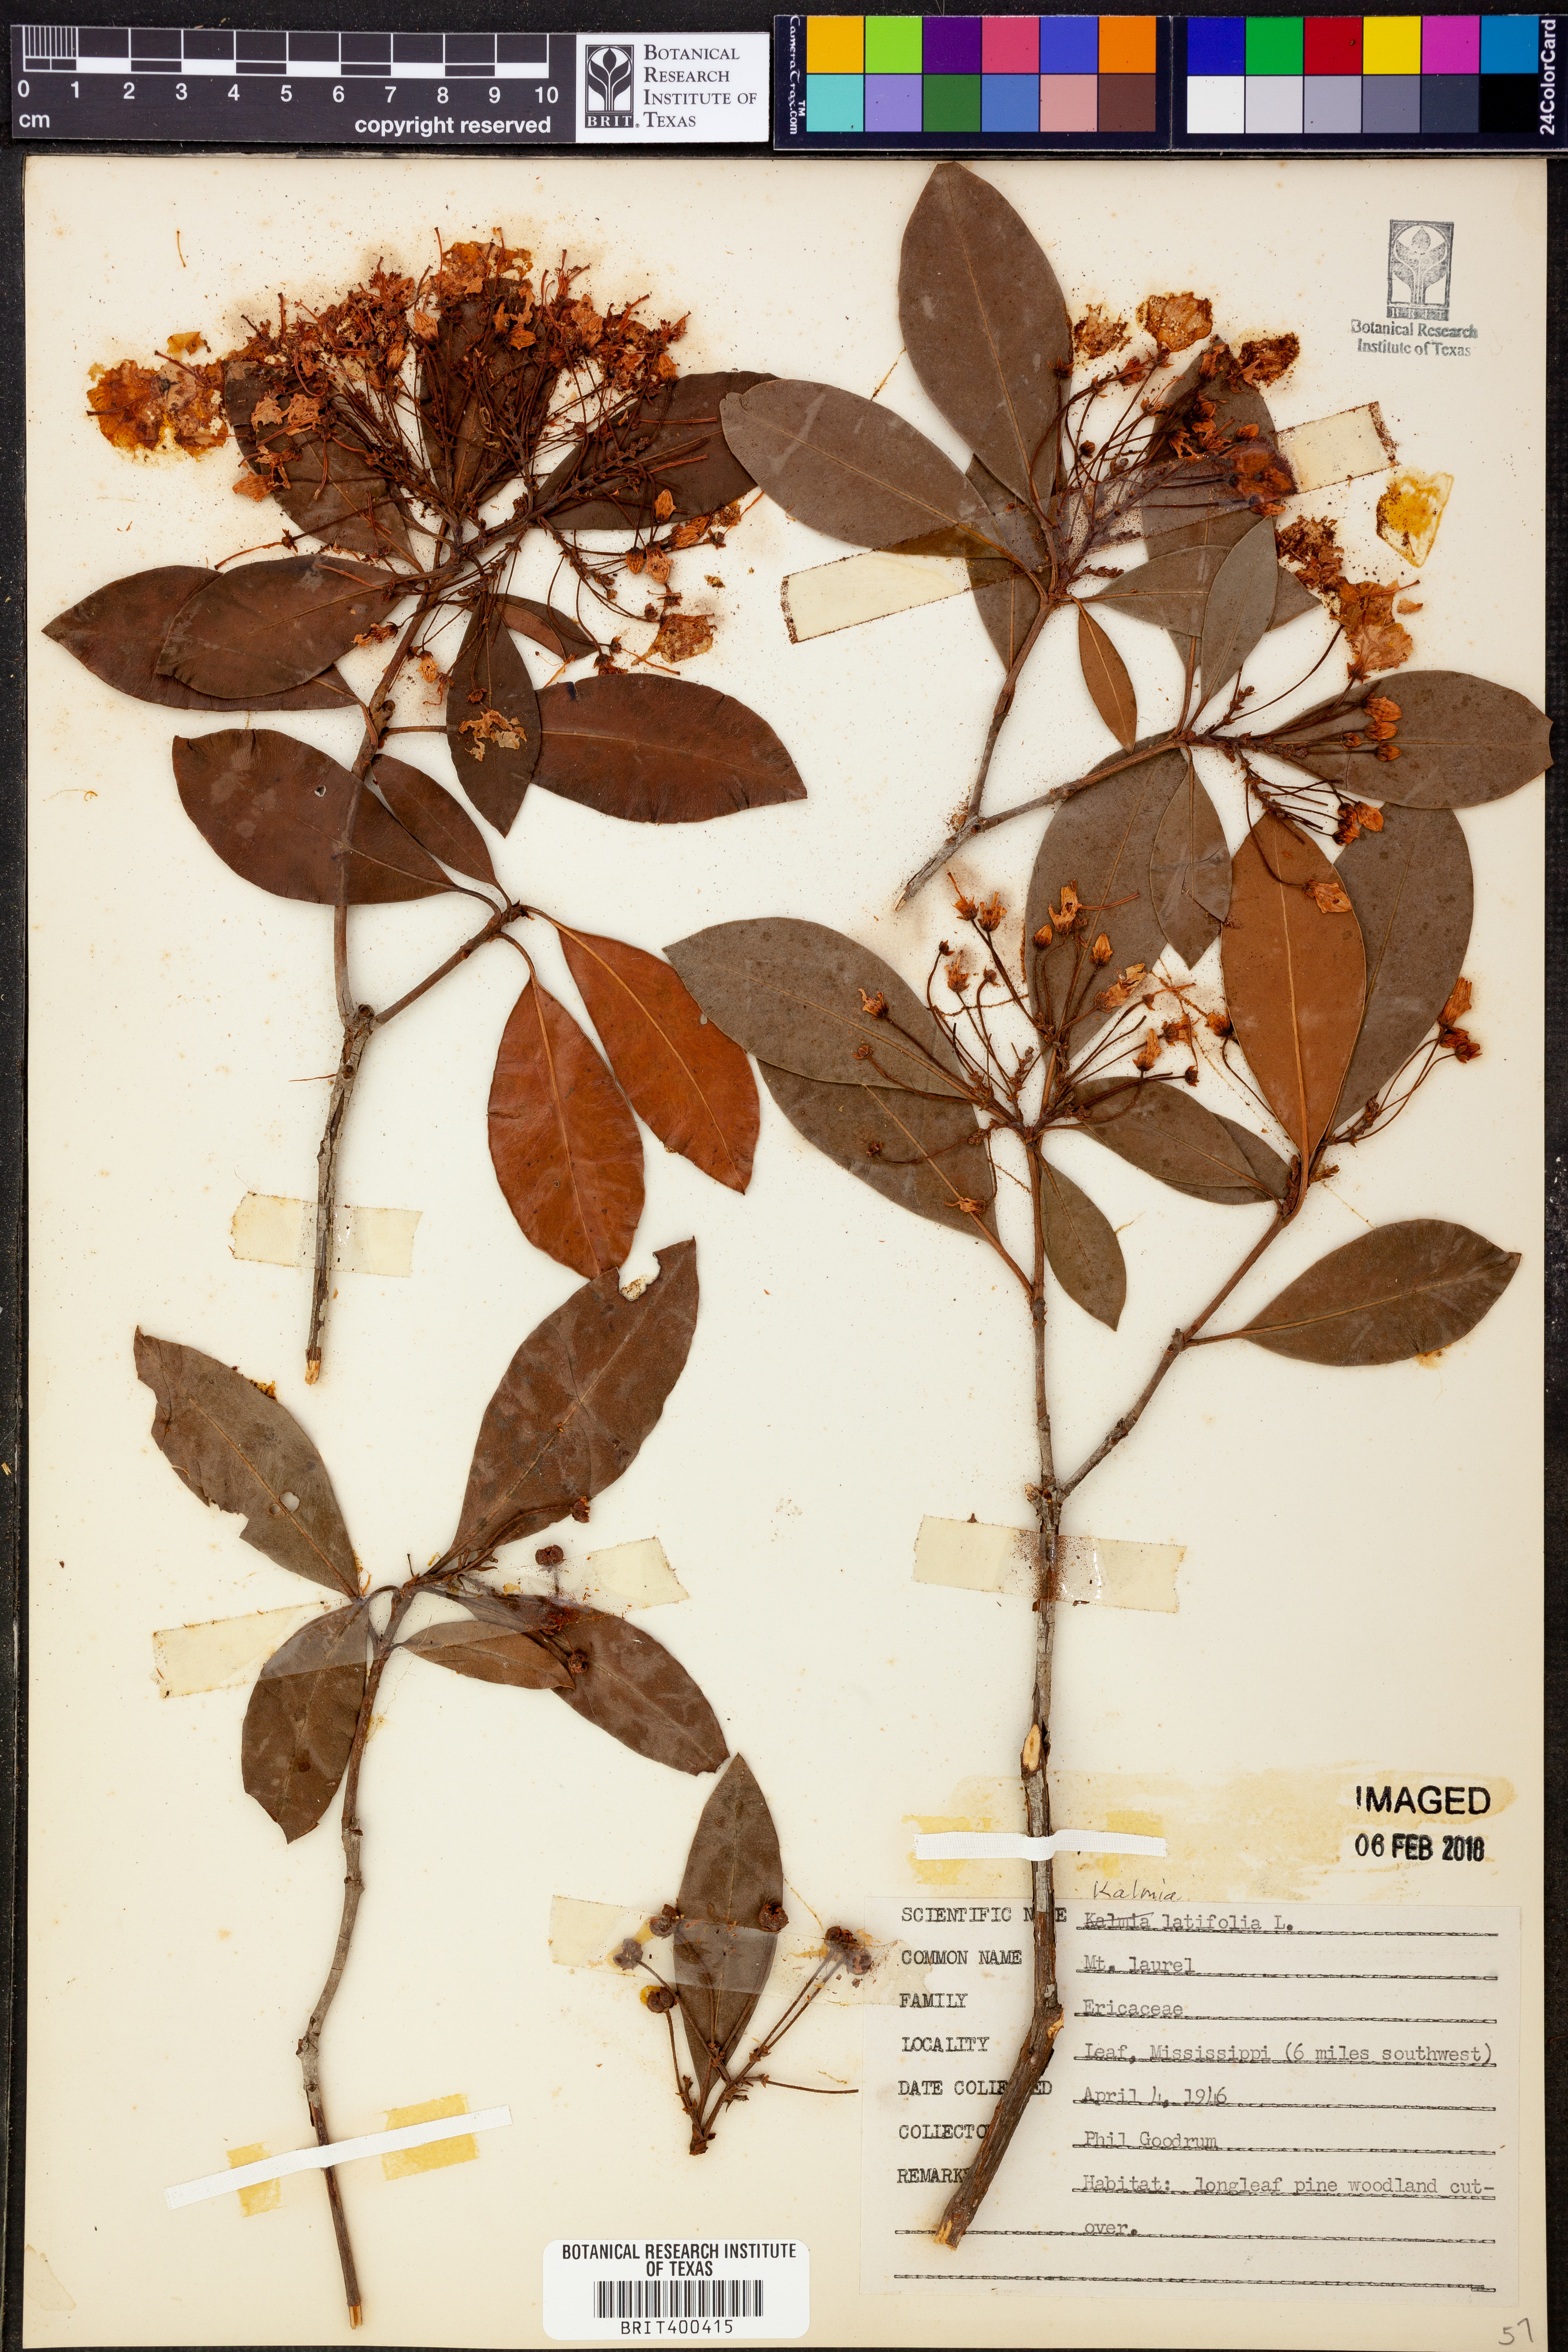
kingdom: Plantae
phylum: Tracheophyta
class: Magnoliopsida
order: Ericales
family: Ericaceae
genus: Kalmia
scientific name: Kalmia latifolia
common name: Mountain-laurel
